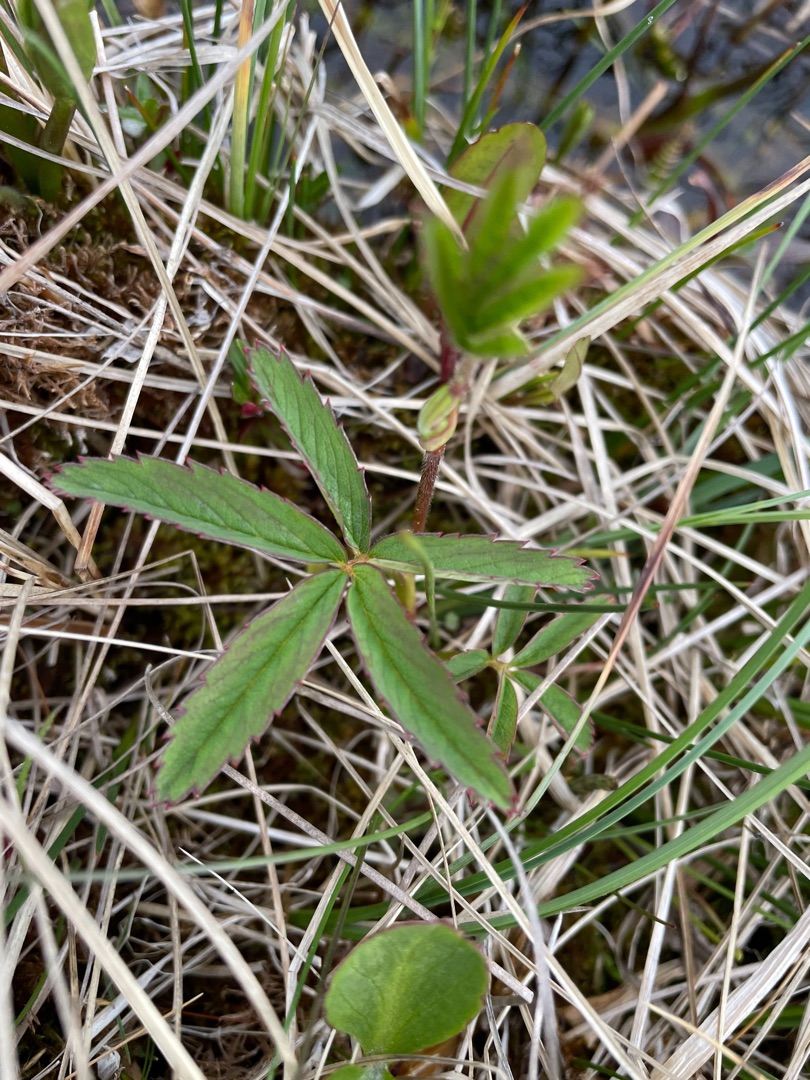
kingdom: Plantae
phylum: Tracheophyta
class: Magnoliopsida
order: Rosales
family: Rosaceae
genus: Comarum
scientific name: Comarum palustre
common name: Kragefod
